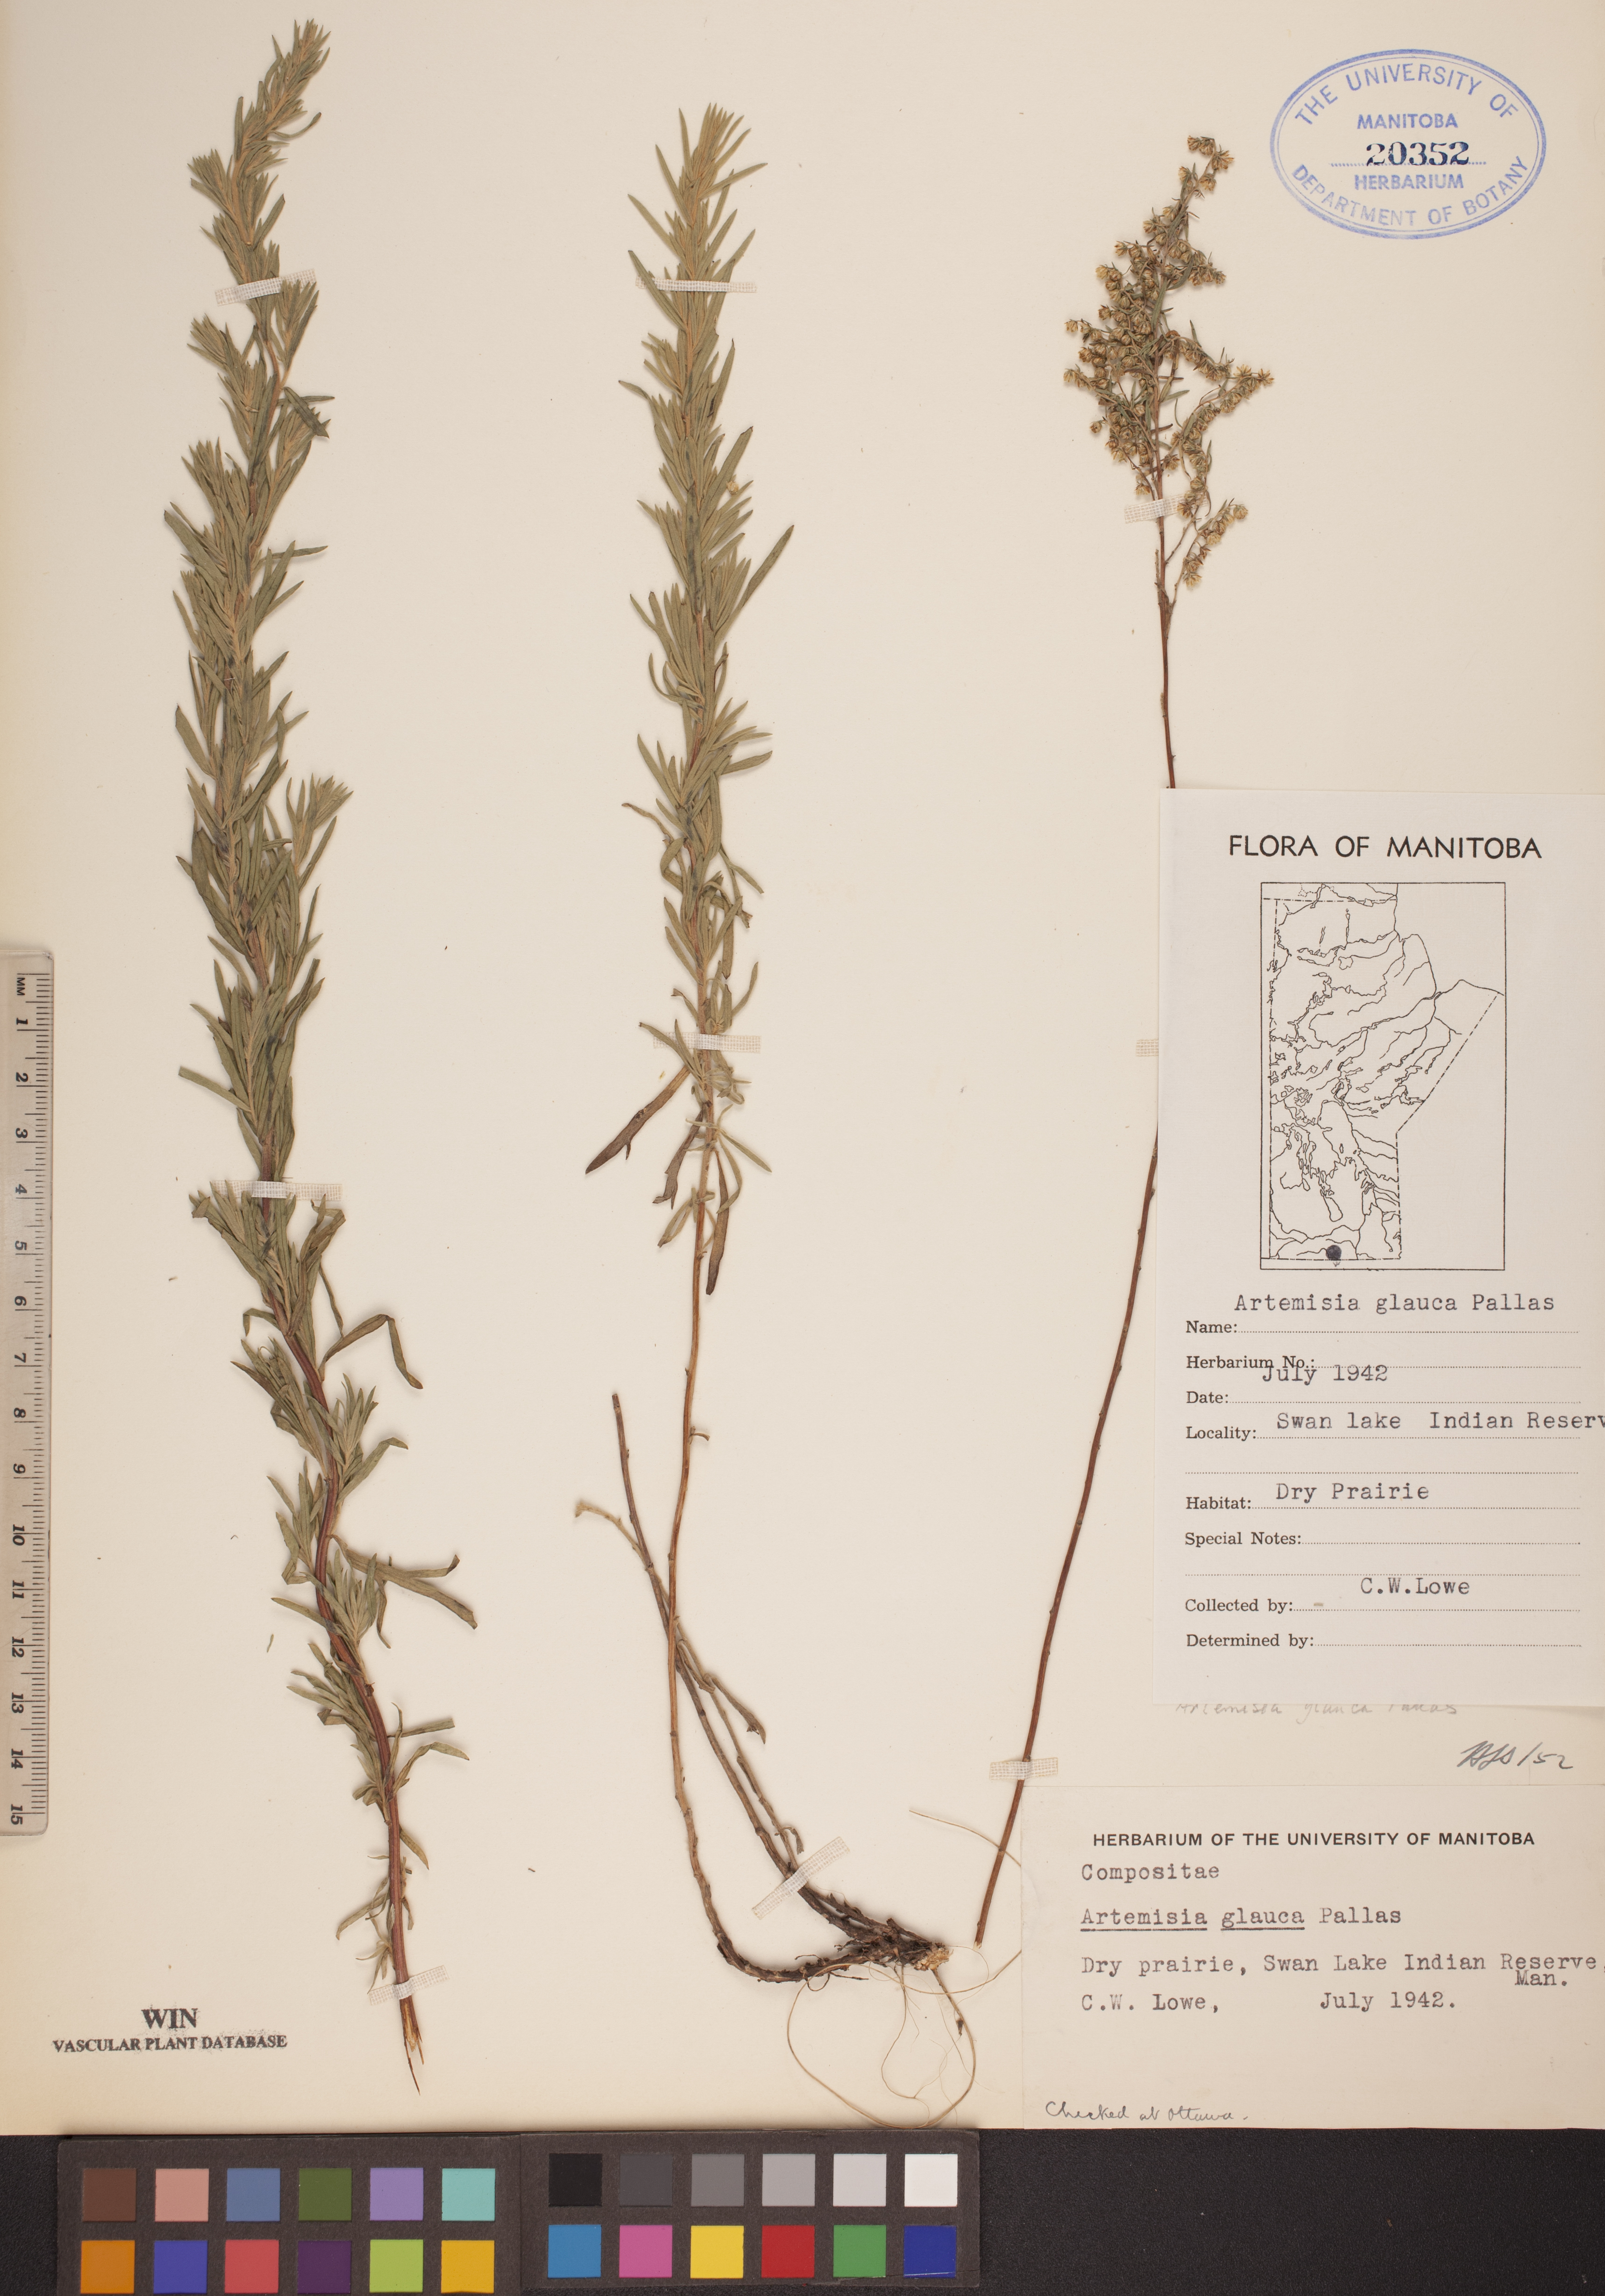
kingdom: Plantae
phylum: Tracheophyta
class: Magnoliopsida
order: Asterales
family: Asteraceae
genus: Artemisia
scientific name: Artemisia glauca
